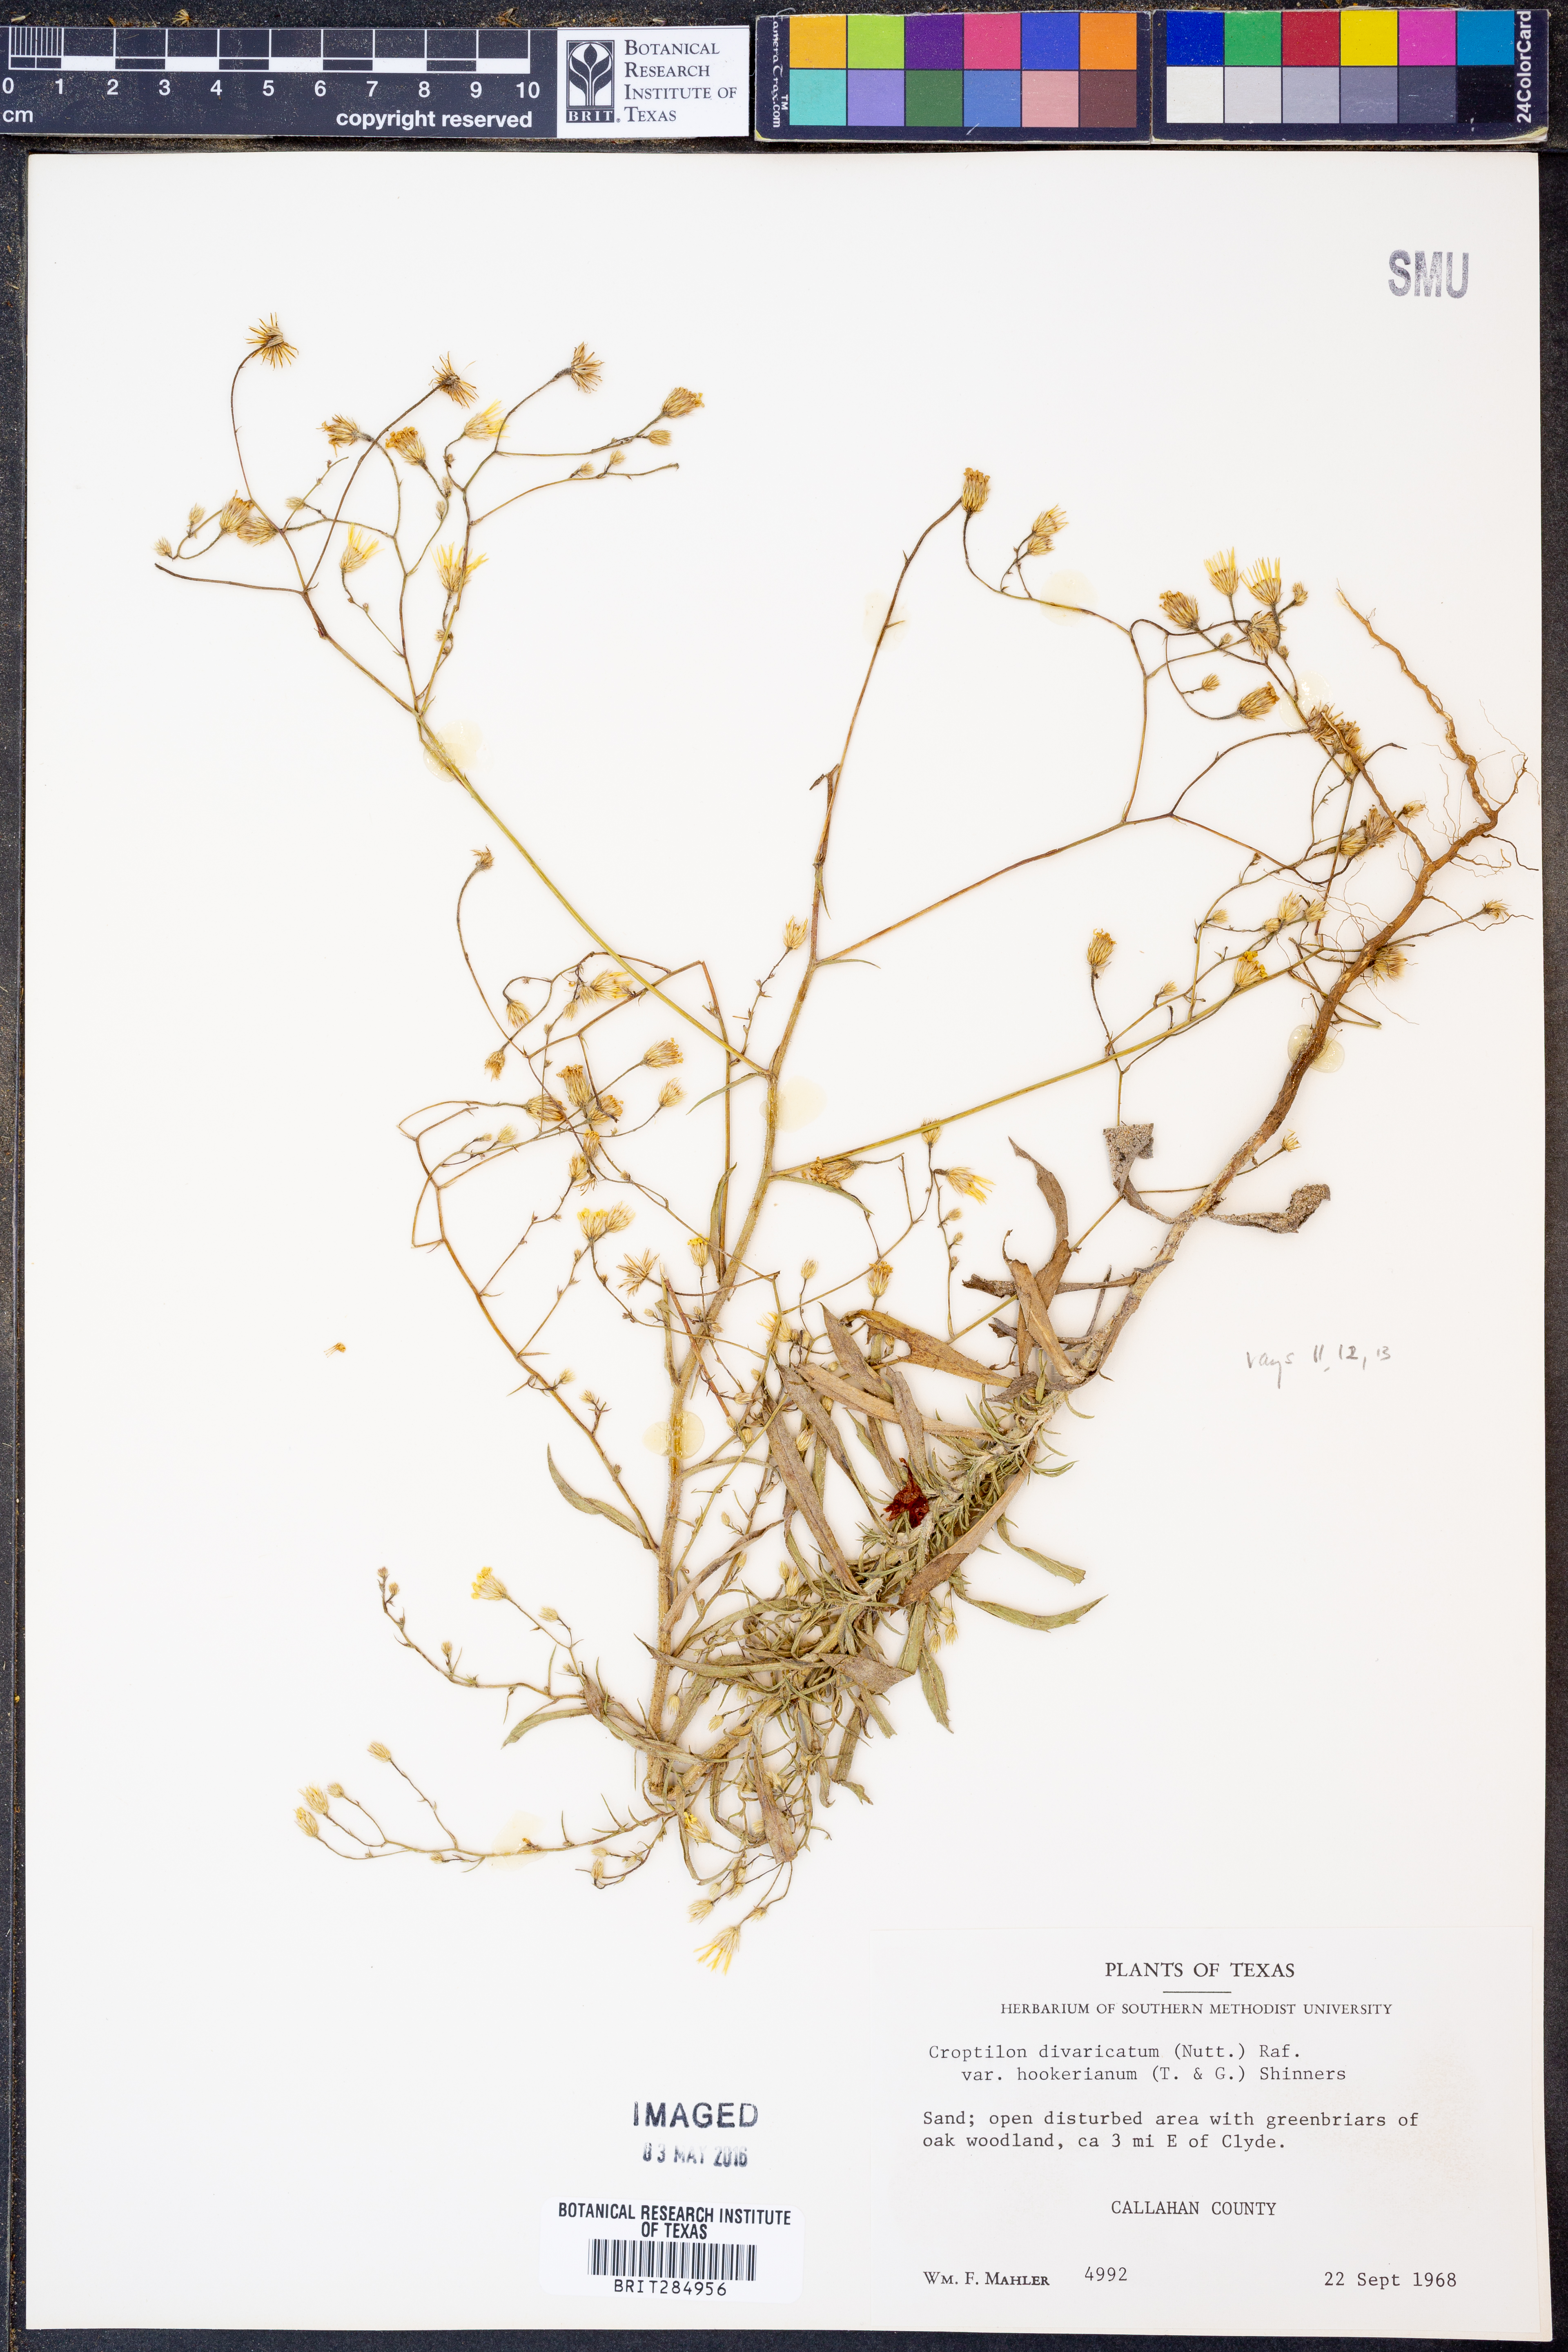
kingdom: Plantae
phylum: Tracheophyta
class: Magnoliopsida
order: Asterales
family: Asteraceae
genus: Croptilon
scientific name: Croptilon hookerianum
